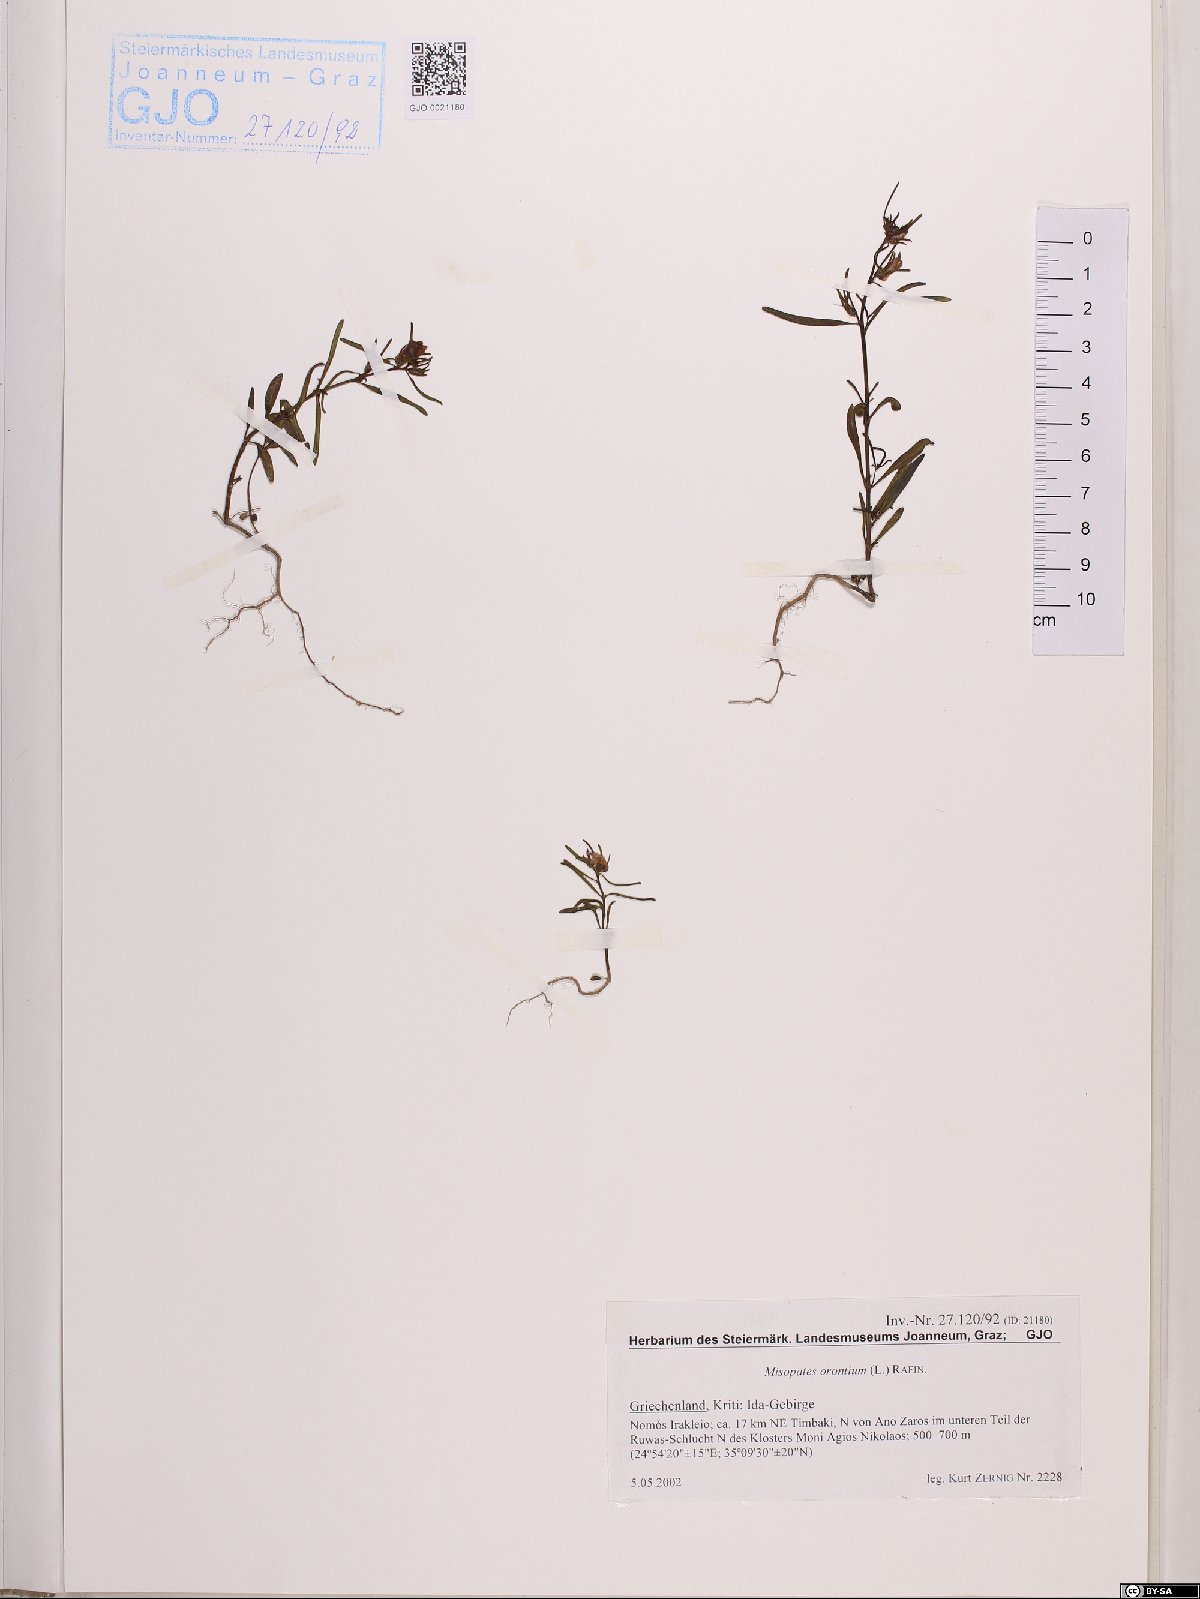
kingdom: Plantae
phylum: Tracheophyta
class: Magnoliopsida
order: Lamiales
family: Plantaginaceae
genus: Misopates
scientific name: Misopates orontium
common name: Weasel's-snout
